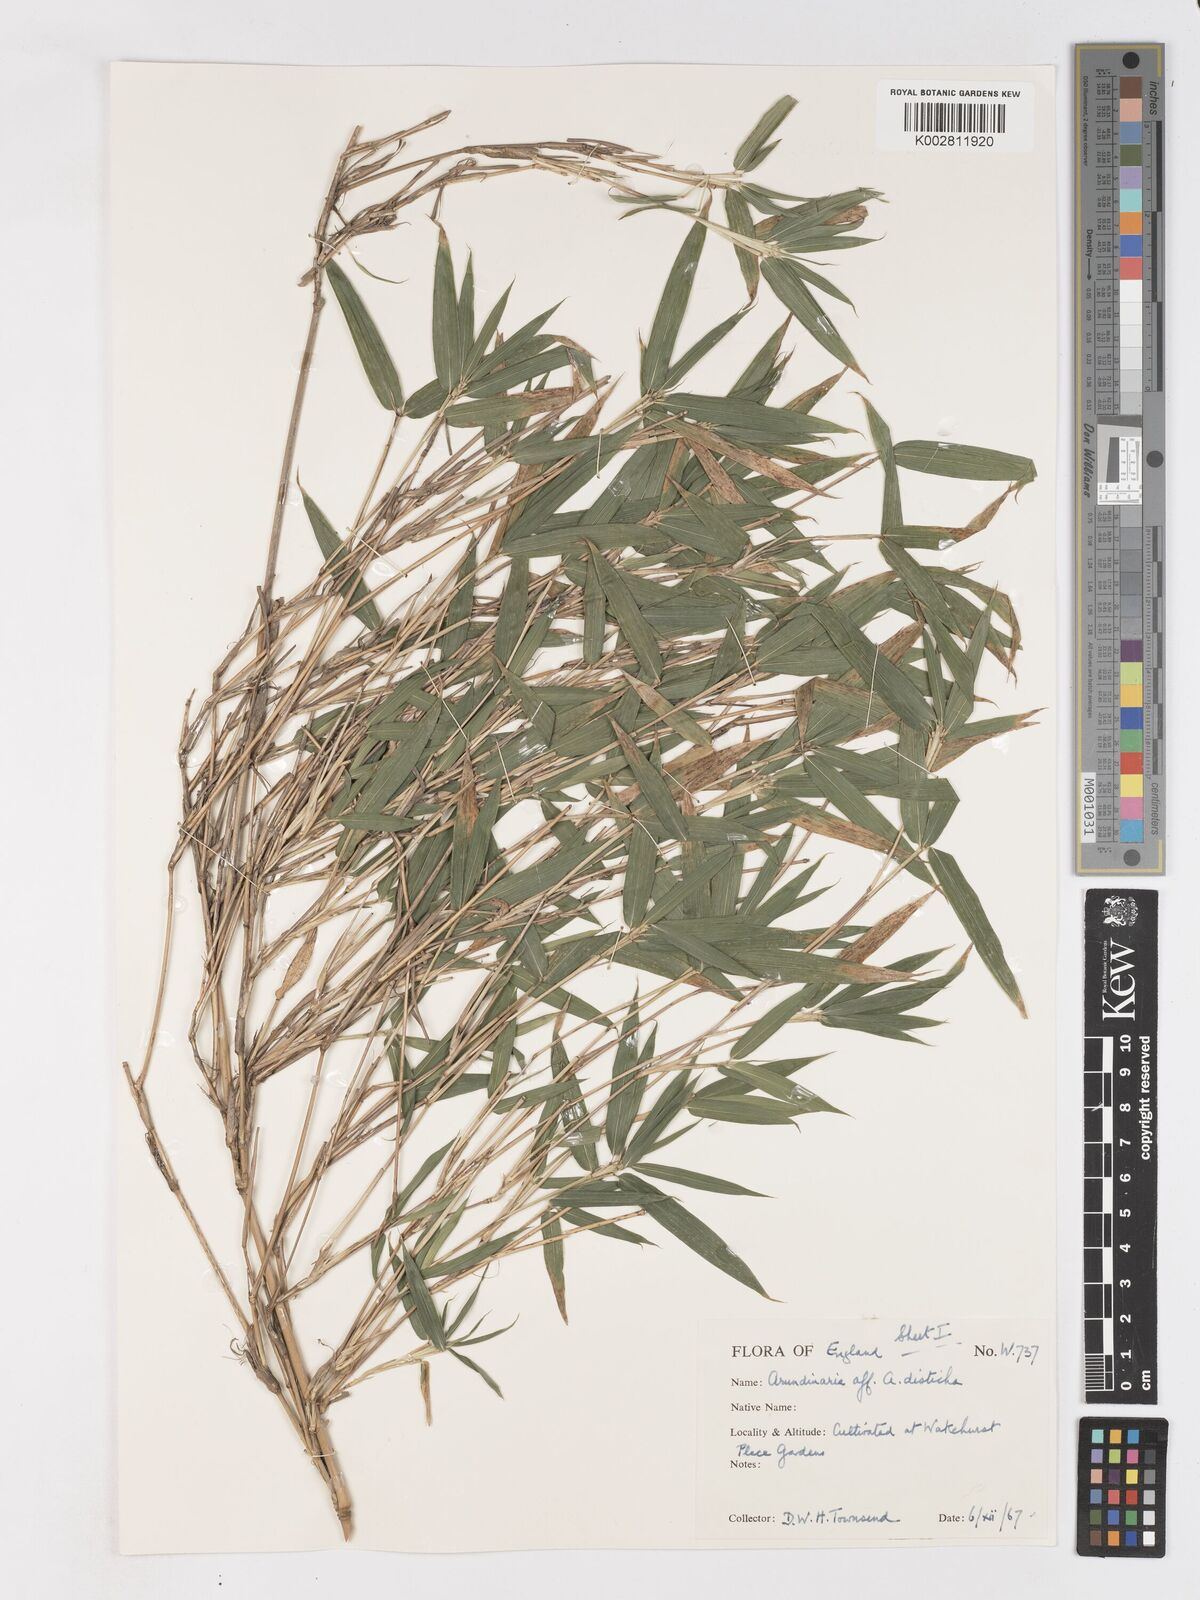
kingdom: Plantae
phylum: Tracheophyta
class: Liliopsida
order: Poales
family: Poaceae
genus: Pleioblastus
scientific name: Pleioblastus distichus
